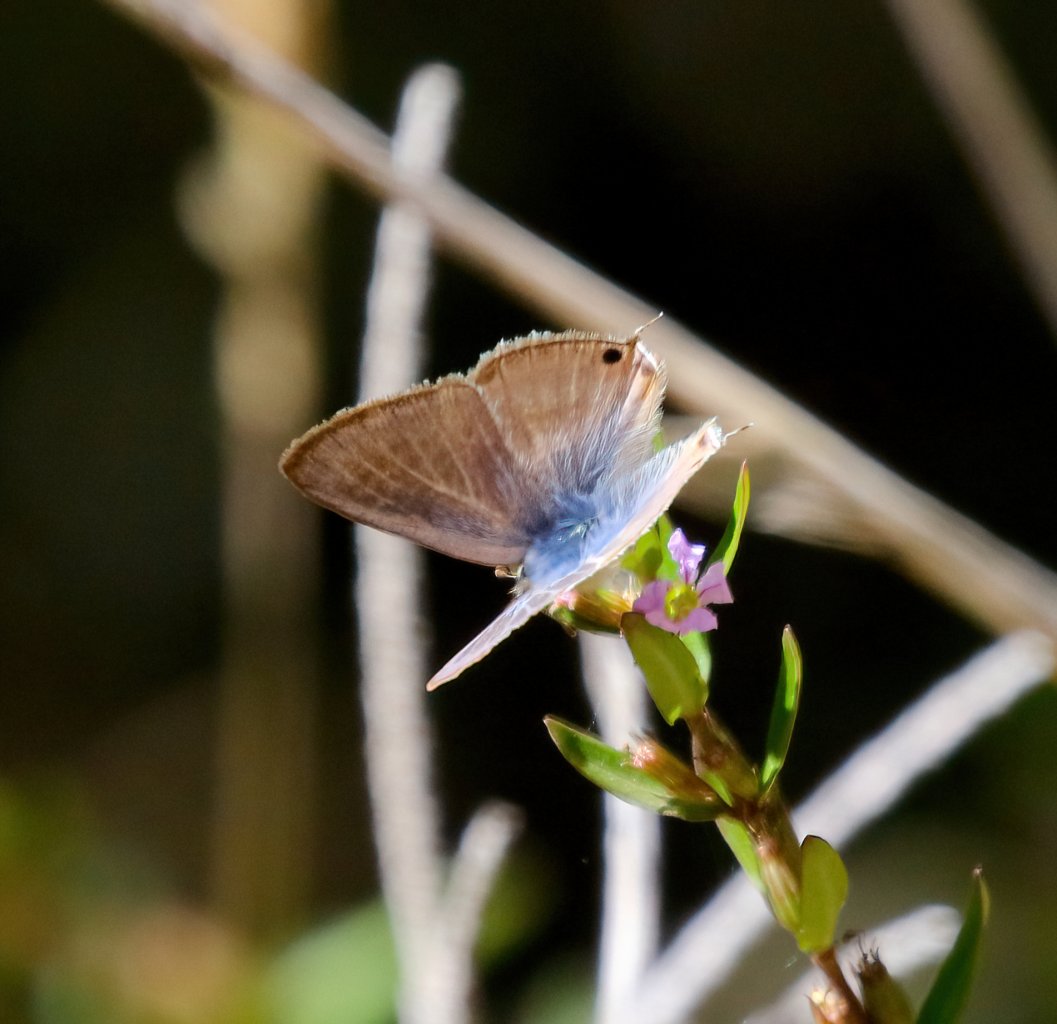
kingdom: Animalia
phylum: Arthropoda
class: Insecta
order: Lepidoptera
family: Lycaenidae
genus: Lampides
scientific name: Lampides boeticus
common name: Pea Blue
